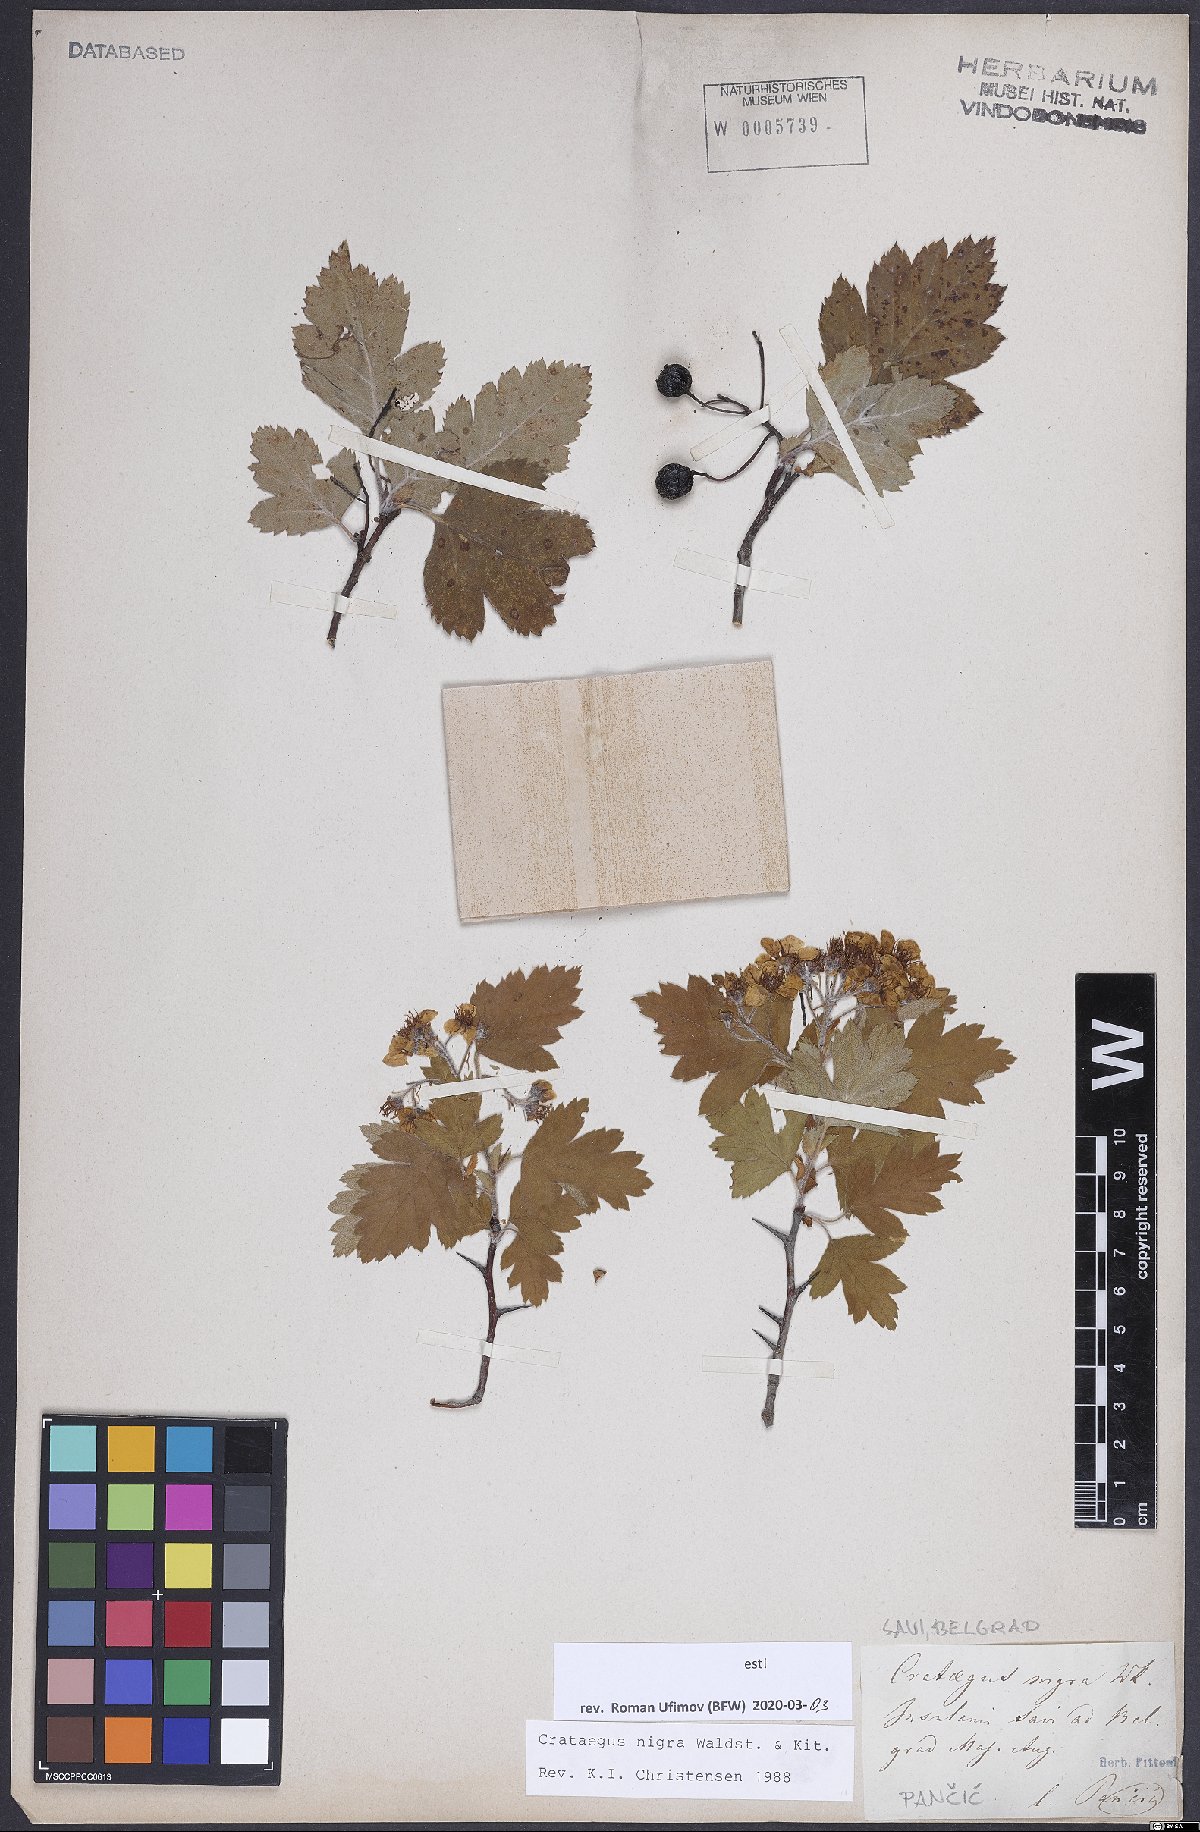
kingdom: Plantae
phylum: Tracheophyta
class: Magnoliopsida
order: Rosales
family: Rosaceae
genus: Crataegus
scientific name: Crataegus nigra
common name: Hungarian thorn
